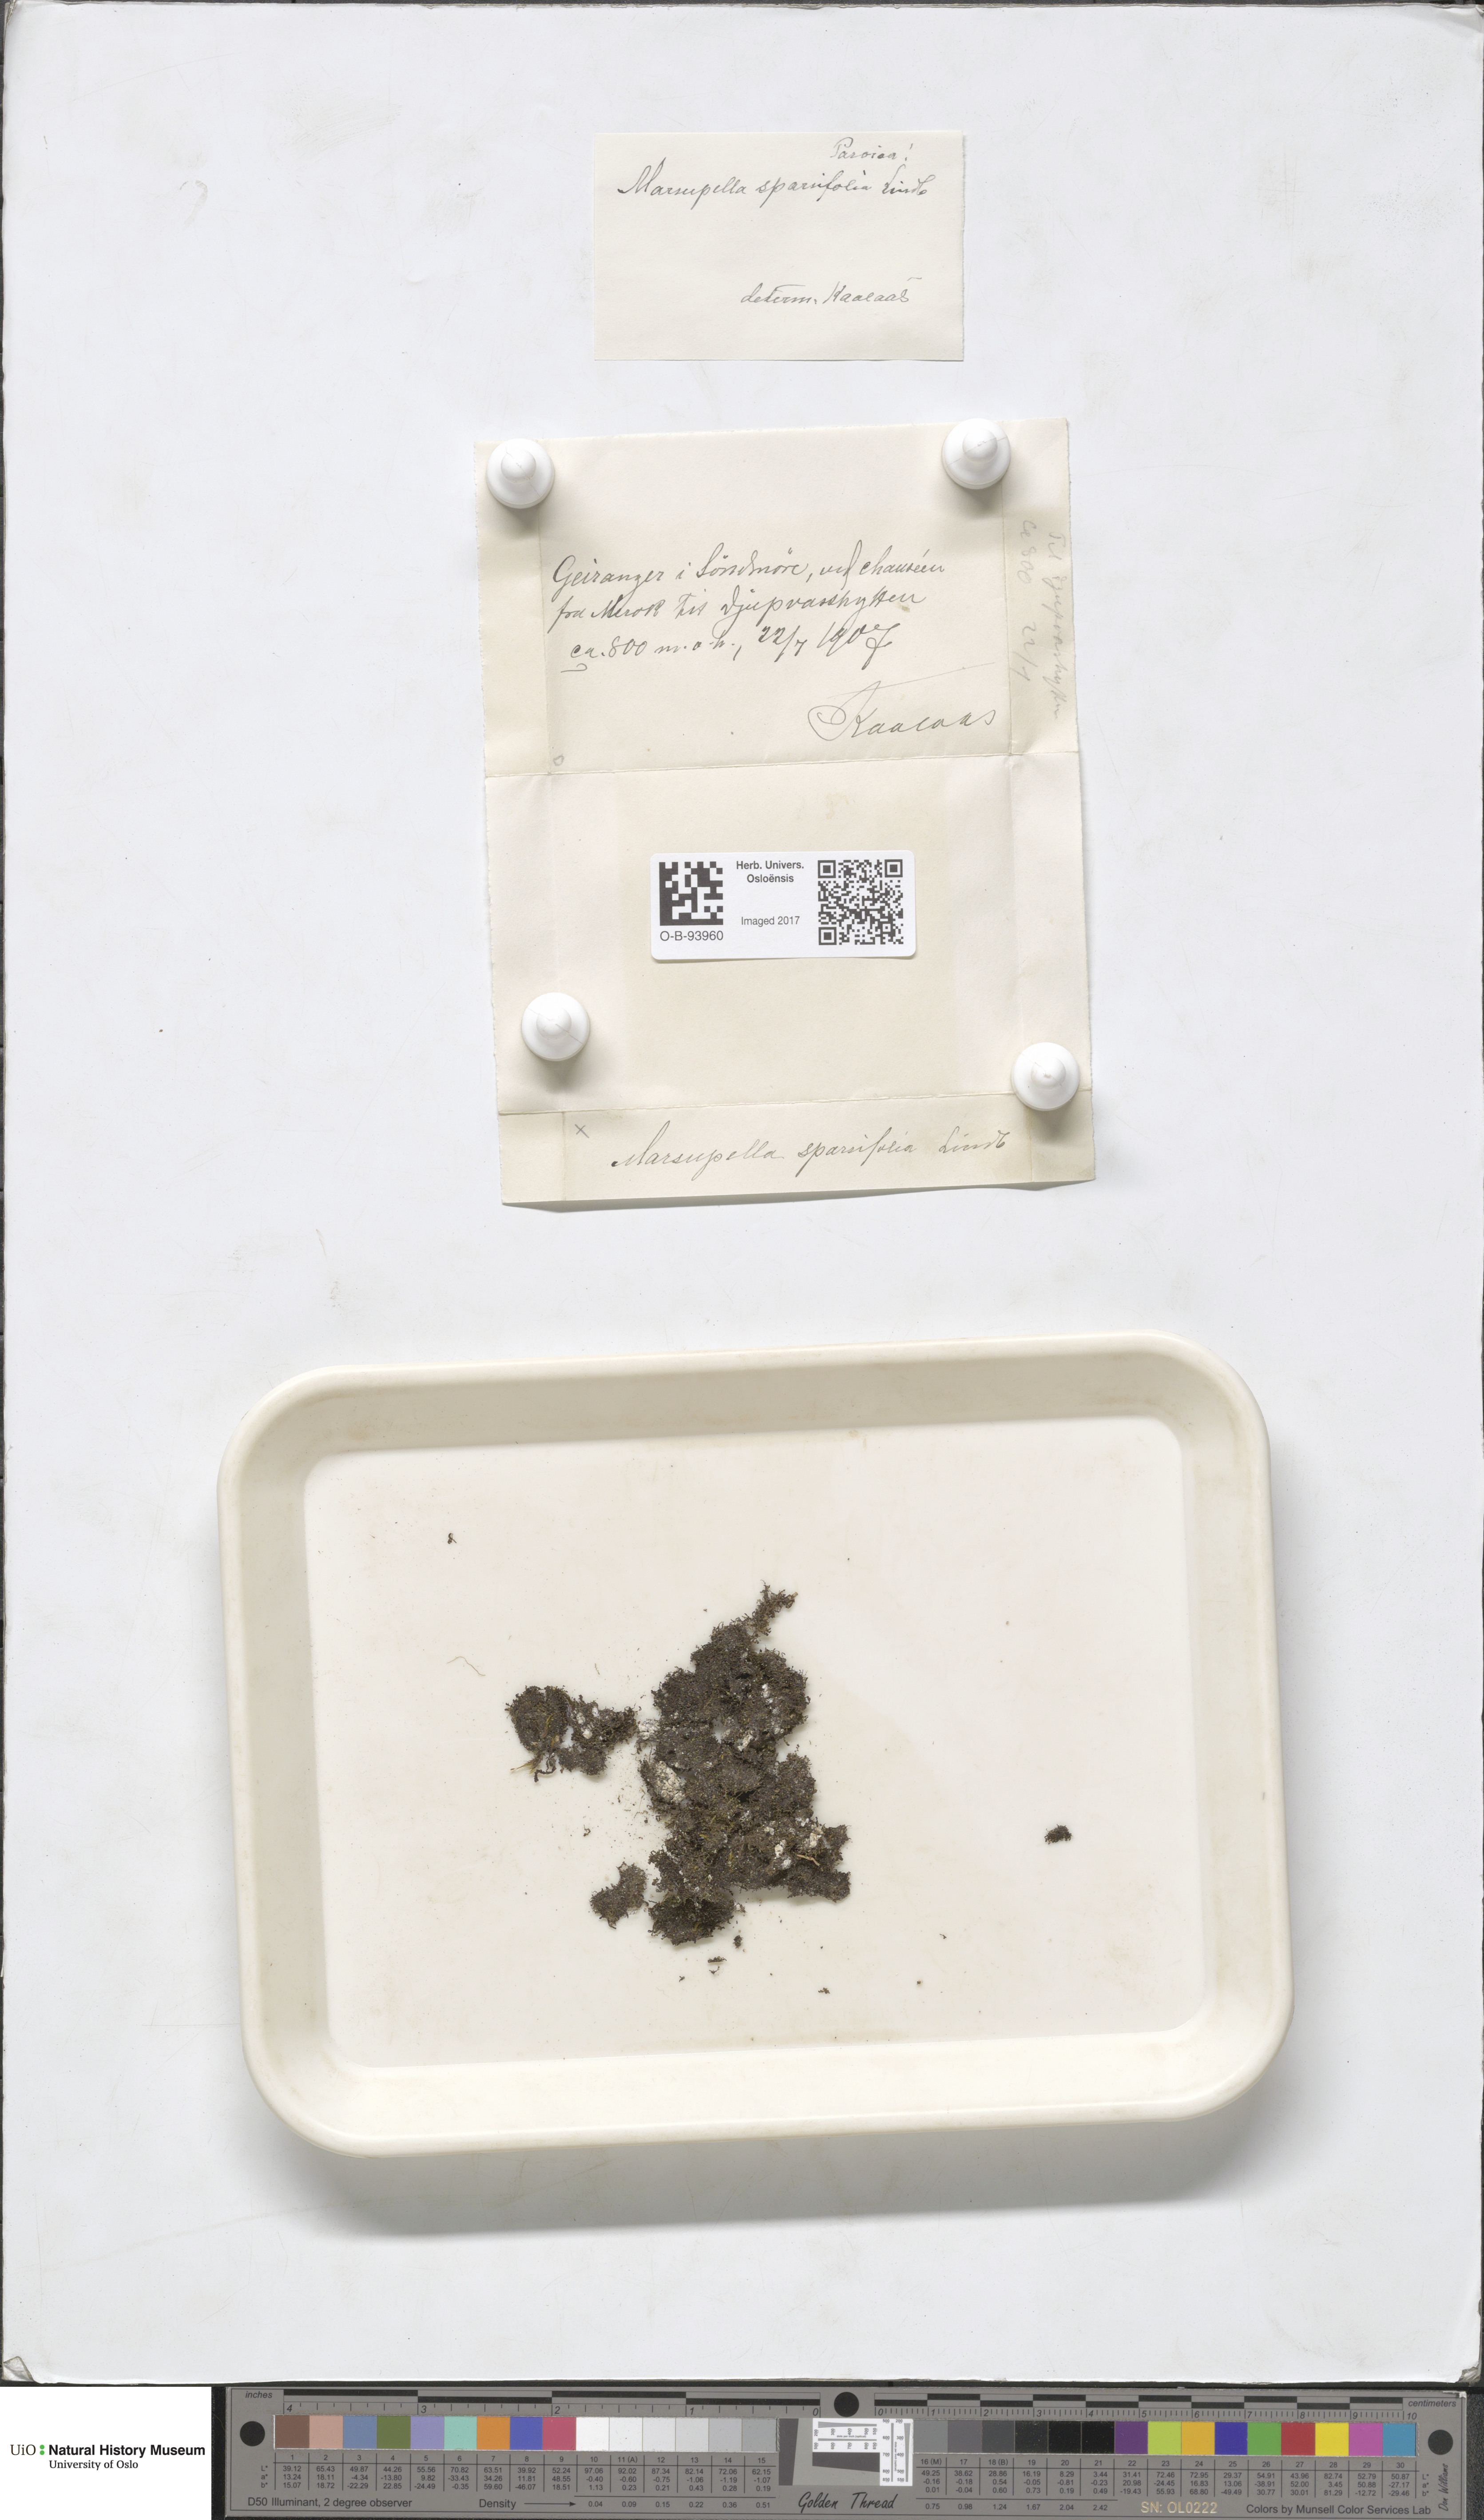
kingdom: Plantae
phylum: Marchantiophyta
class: Jungermanniopsida
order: Jungermanniales
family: Gymnomitriaceae
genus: Marsupella
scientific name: Marsupella sparsifolia
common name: Rounded rustwort
